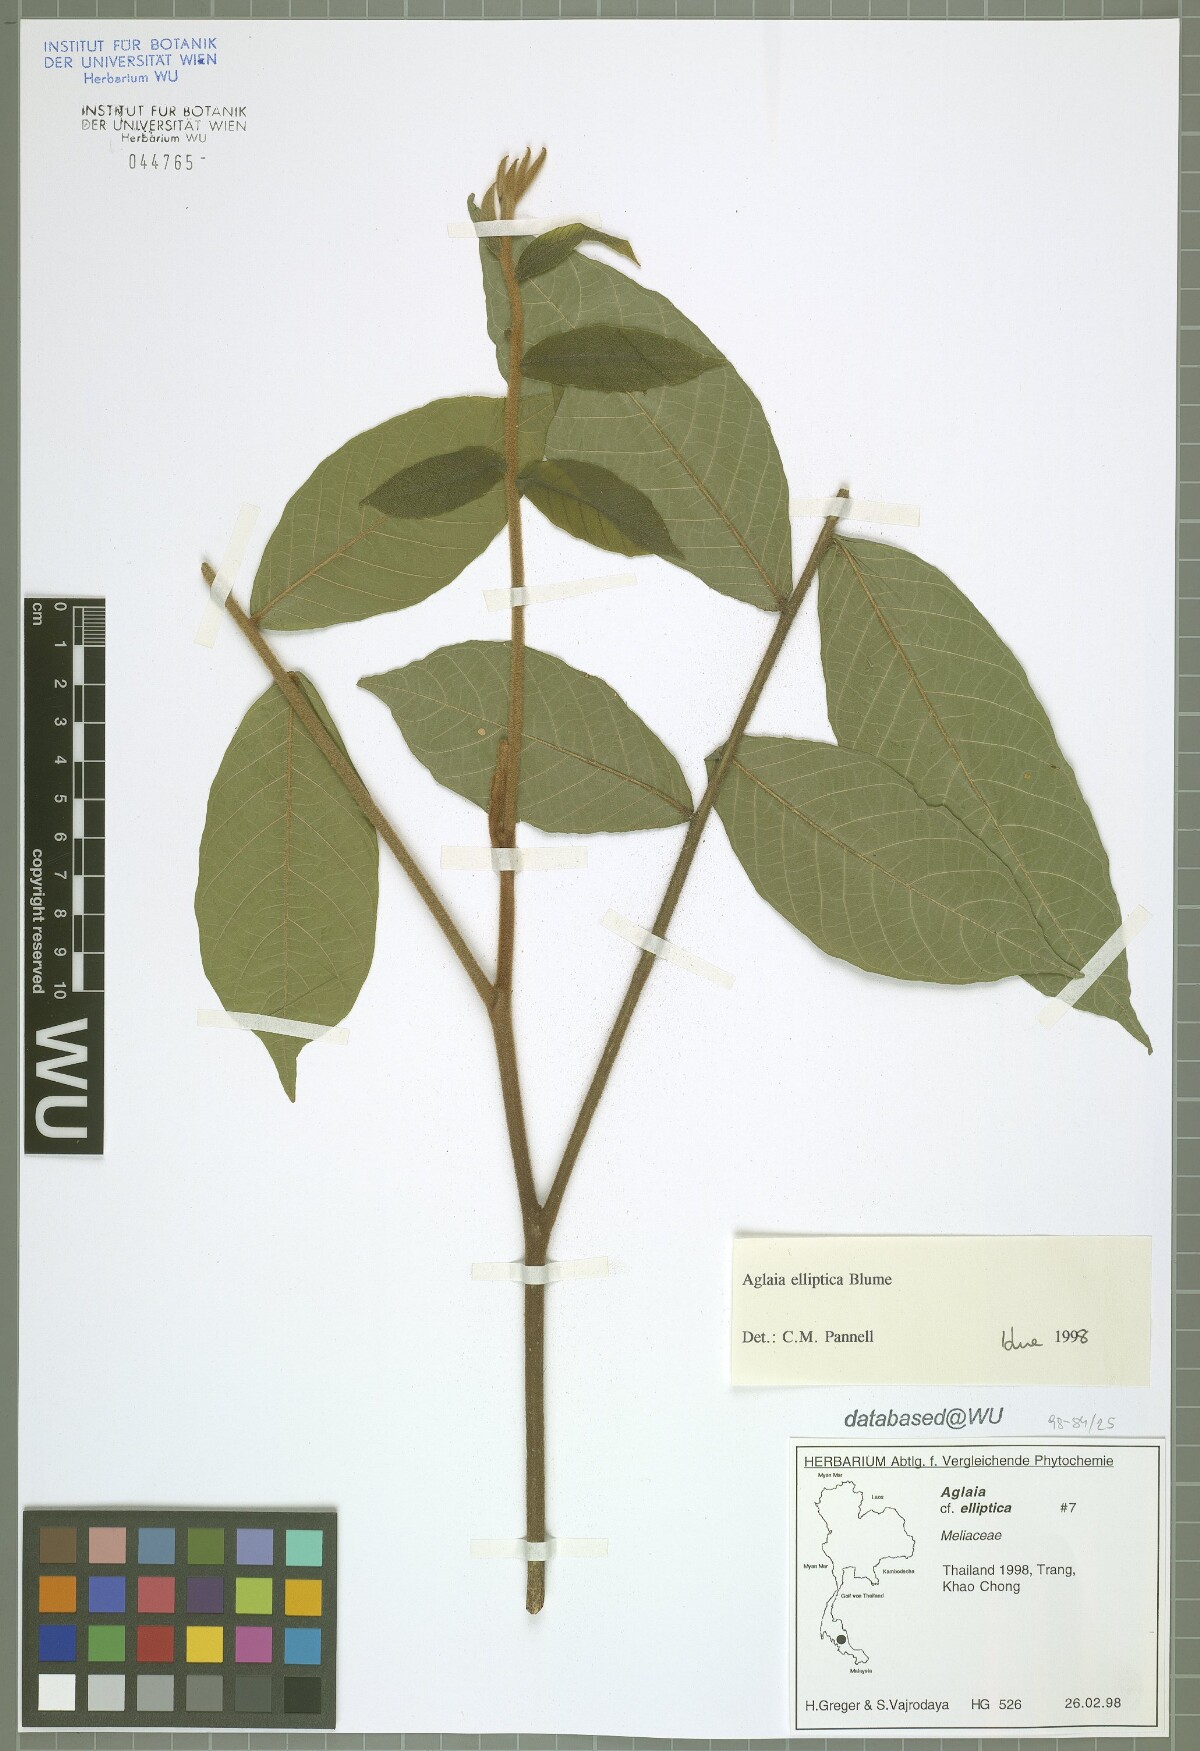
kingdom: Plantae
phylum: Tracheophyta
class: Magnoliopsida
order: Sapindales
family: Meliaceae
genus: Aglaia
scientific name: Aglaia elliptica
